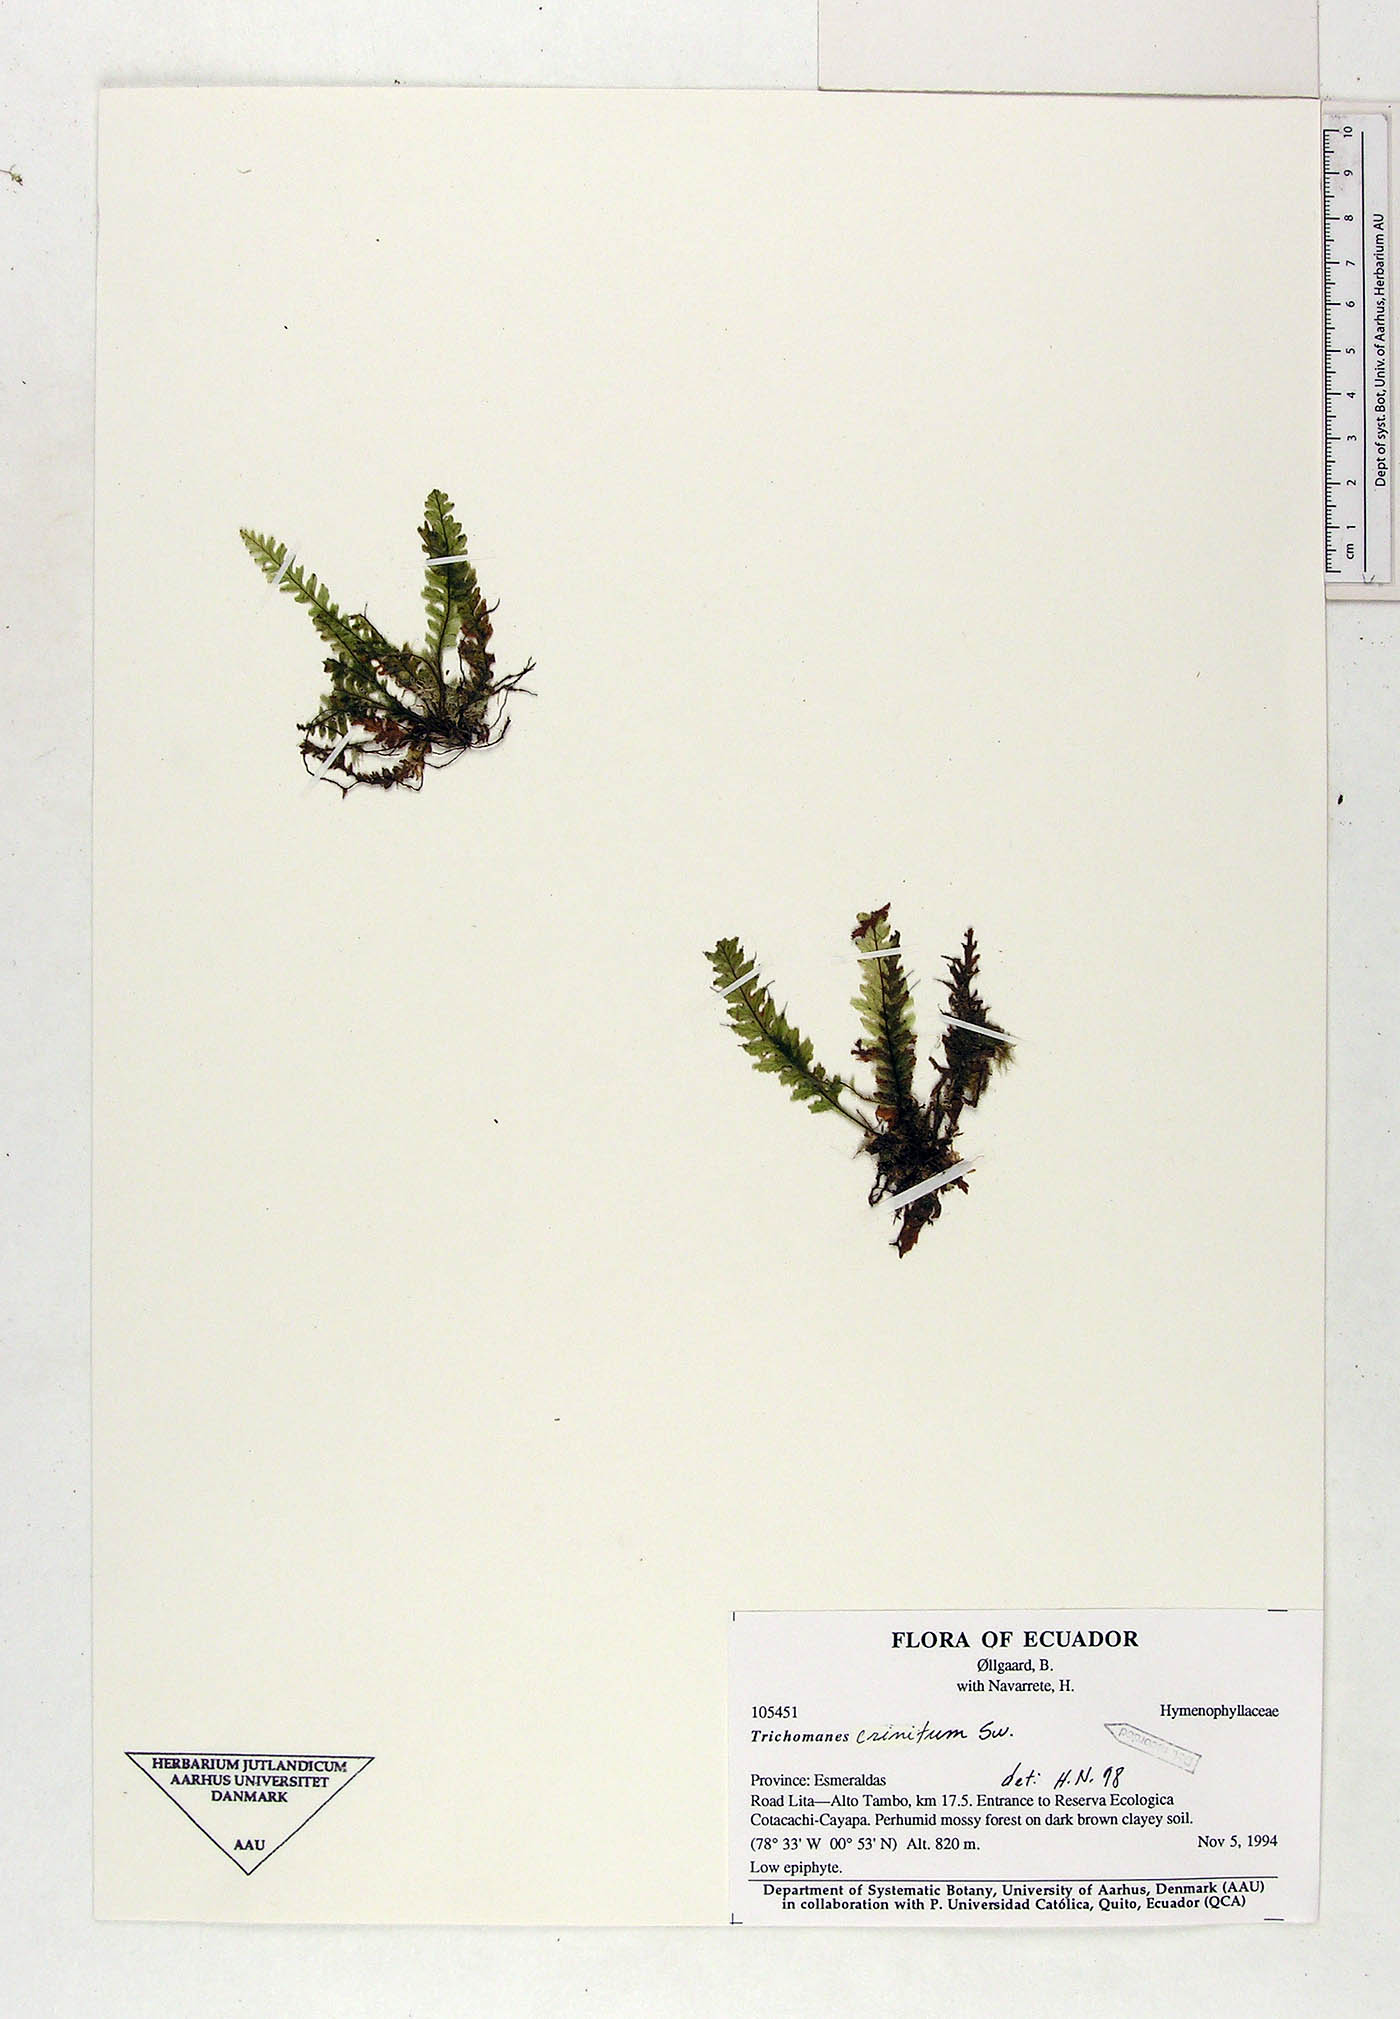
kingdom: Plantae
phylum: Tracheophyta
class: Polypodiopsida
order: Hymenophyllales
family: Hymenophyllaceae
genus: Trichomanes
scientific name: Trichomanes crinitum
